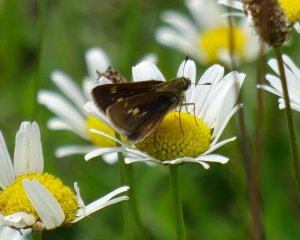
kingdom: Animalia
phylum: Arthropoda
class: Insecta
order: Lepidoptera
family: Hesperiidae
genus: Vernia
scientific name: Vernia verna
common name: Little Glassywing
